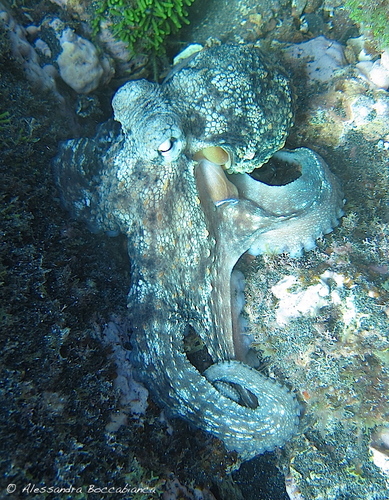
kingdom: Animalia
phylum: Mollusca
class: Cephalopoda
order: Octopoda
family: Octopodidae
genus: Octopus
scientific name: Octopus vulgaris
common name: Common octopus
